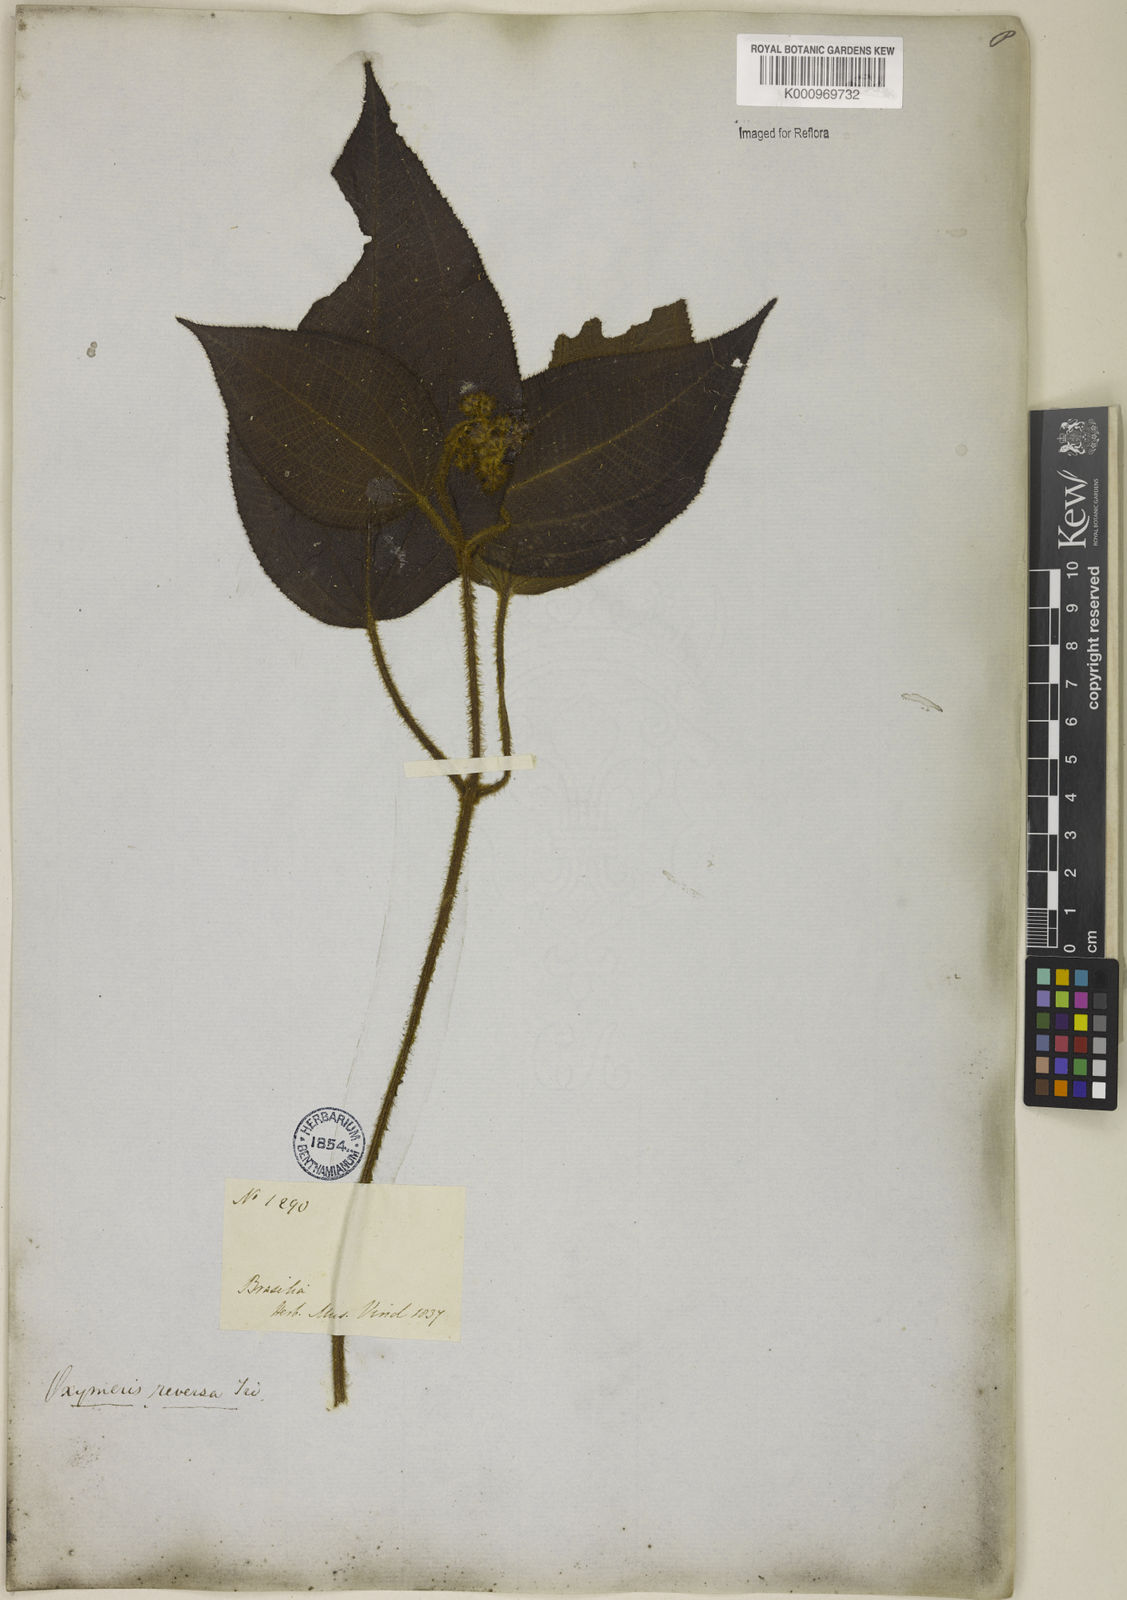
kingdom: Plantae
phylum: Tracheophyta
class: Magnoliopsida
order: Myrtales
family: Melastomataceae
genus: Miconia
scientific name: Miconia reversa
